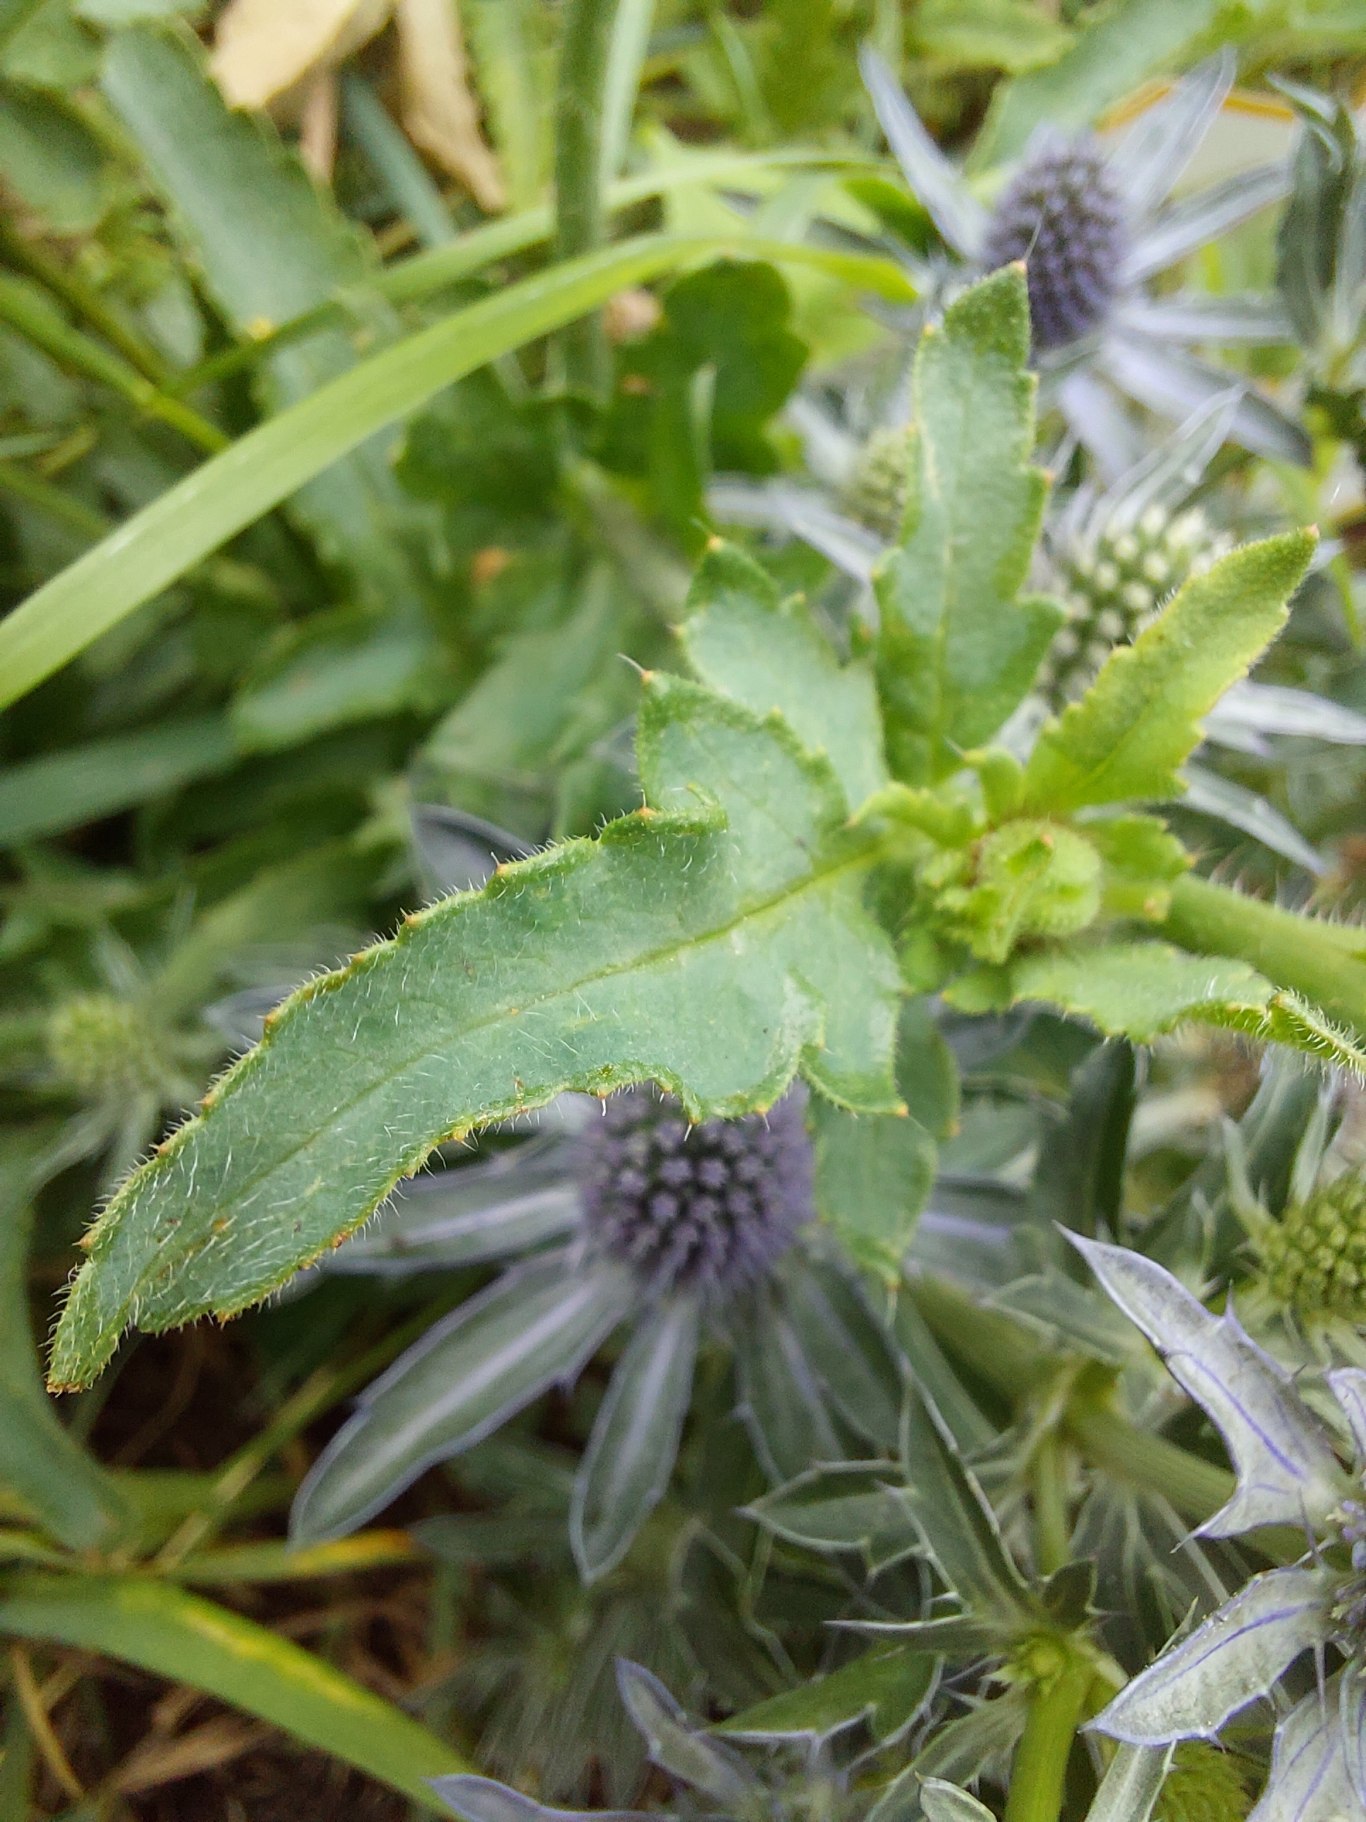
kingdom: Plantae
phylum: Tracheophyta
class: Magnoliopsida
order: Ranunculales
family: Papaveraceae
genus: Papaver
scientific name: Papaver rhoeas
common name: Korn-valmue
